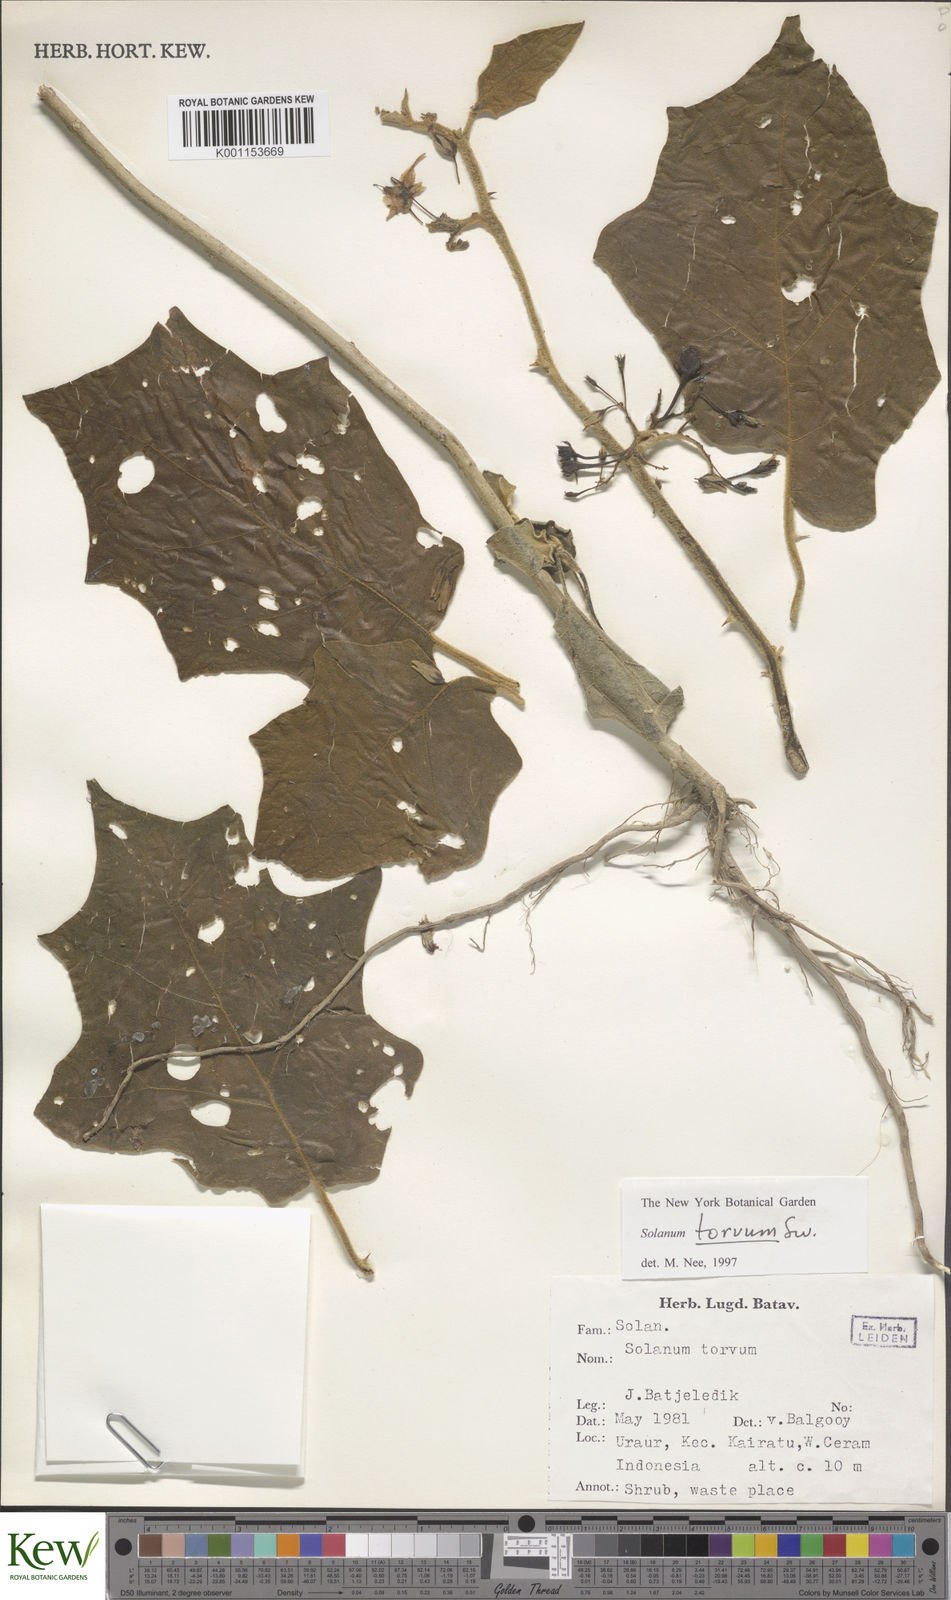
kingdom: Plantae
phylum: Tracheophyta
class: Magnoliopsida
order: Solanales
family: Solanaceae
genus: Solanum
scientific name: Solanum torvum
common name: Turkey berry
